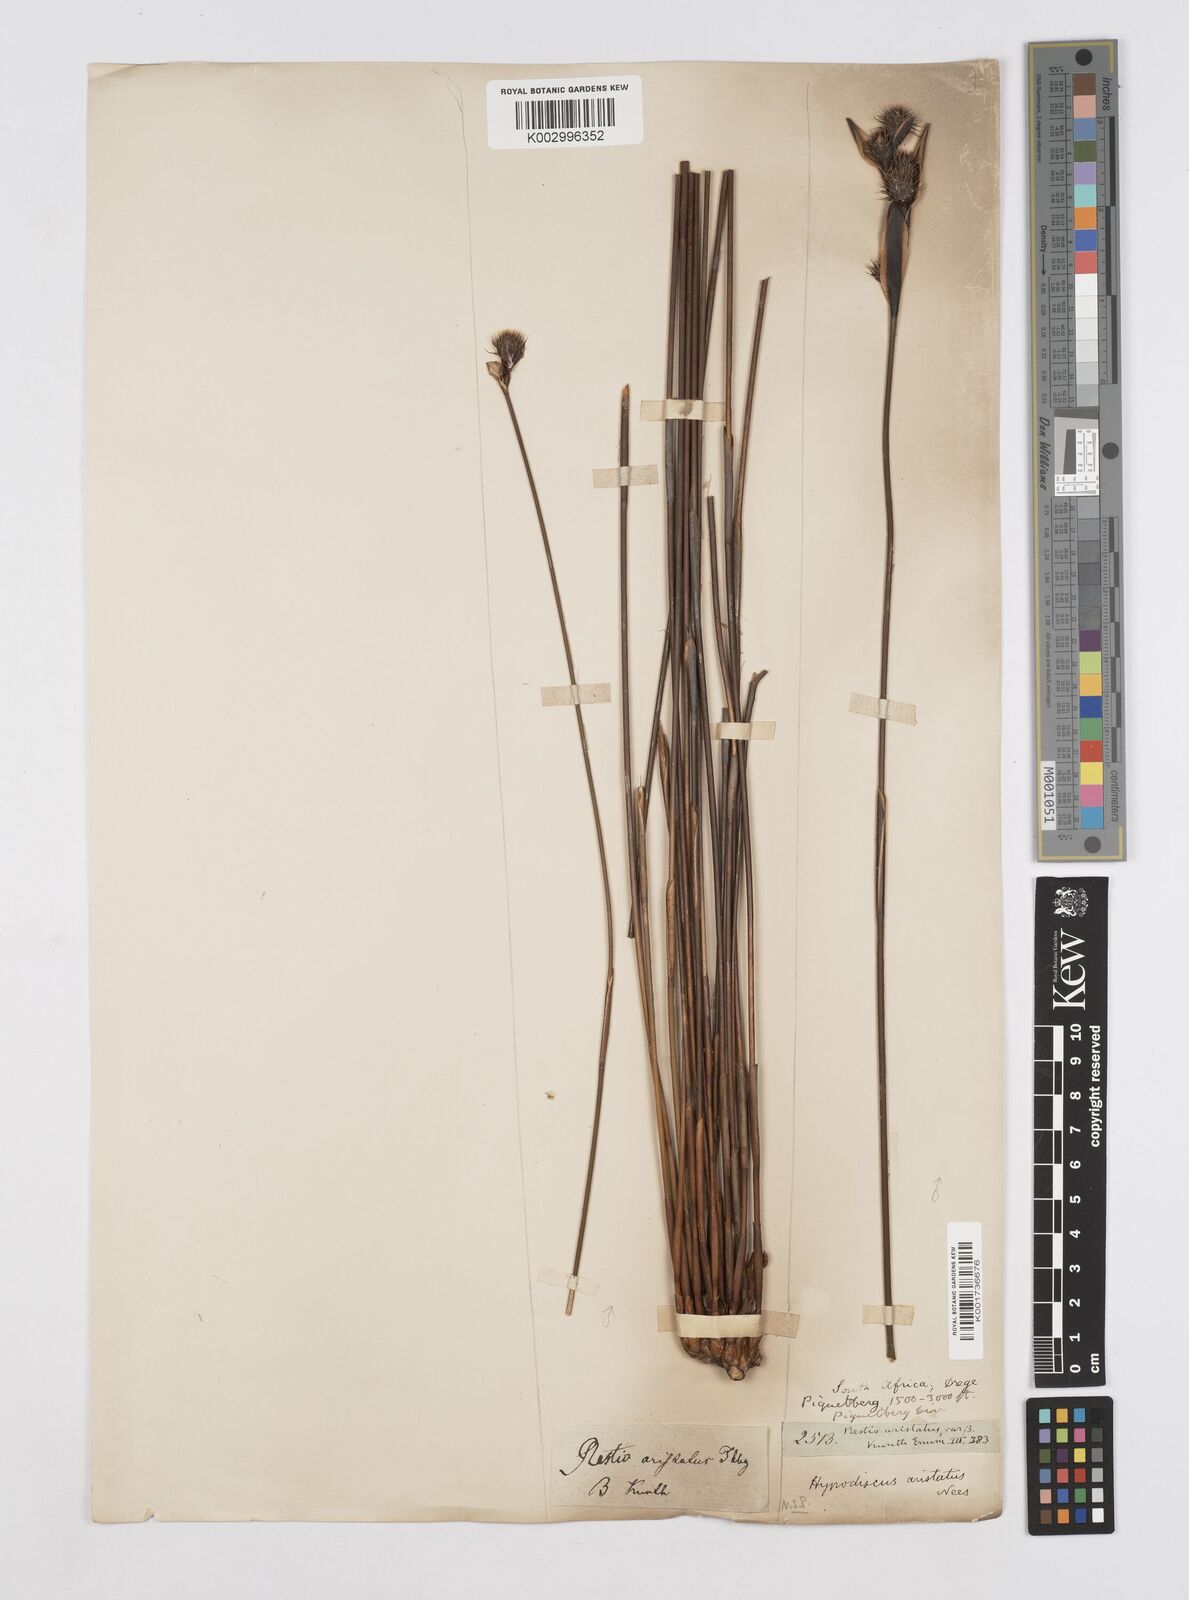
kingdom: Plantae
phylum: Tracheophyta
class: Liliopsida
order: Poales
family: Restionaceae
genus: Hypodiscus
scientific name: Hypodiscus aristatus
